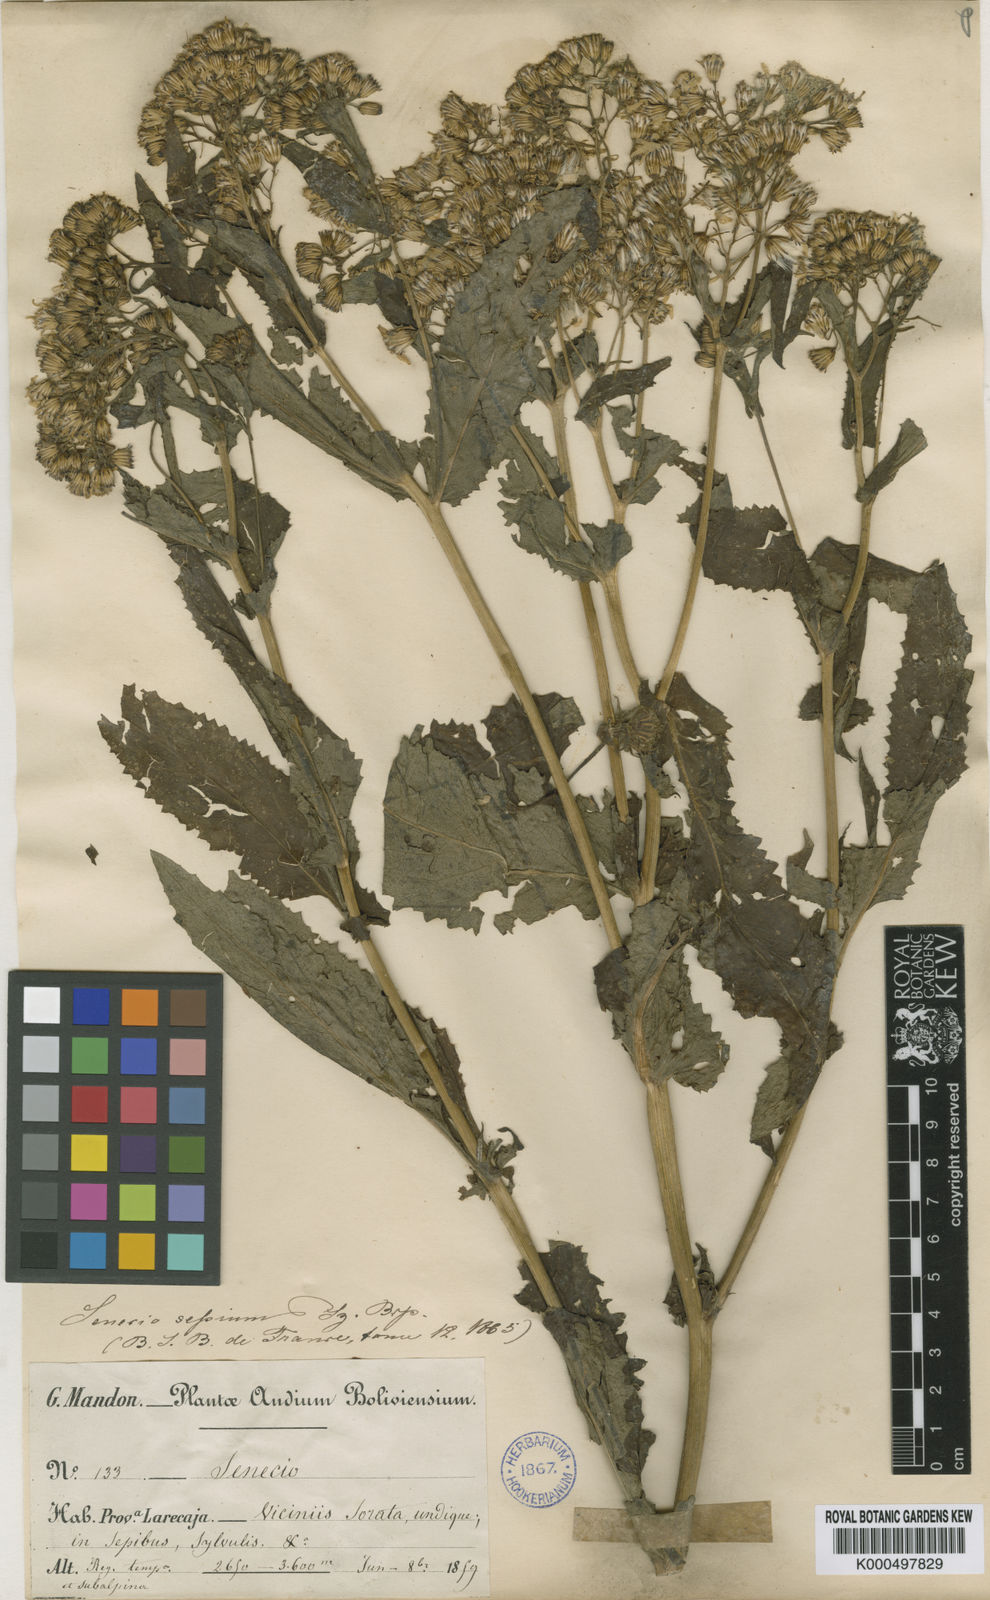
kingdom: Plantae
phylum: Tracheophyta
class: Magnoliopsida
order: Asterales
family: Asteraceae
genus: Senecio
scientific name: Senecio sepium
